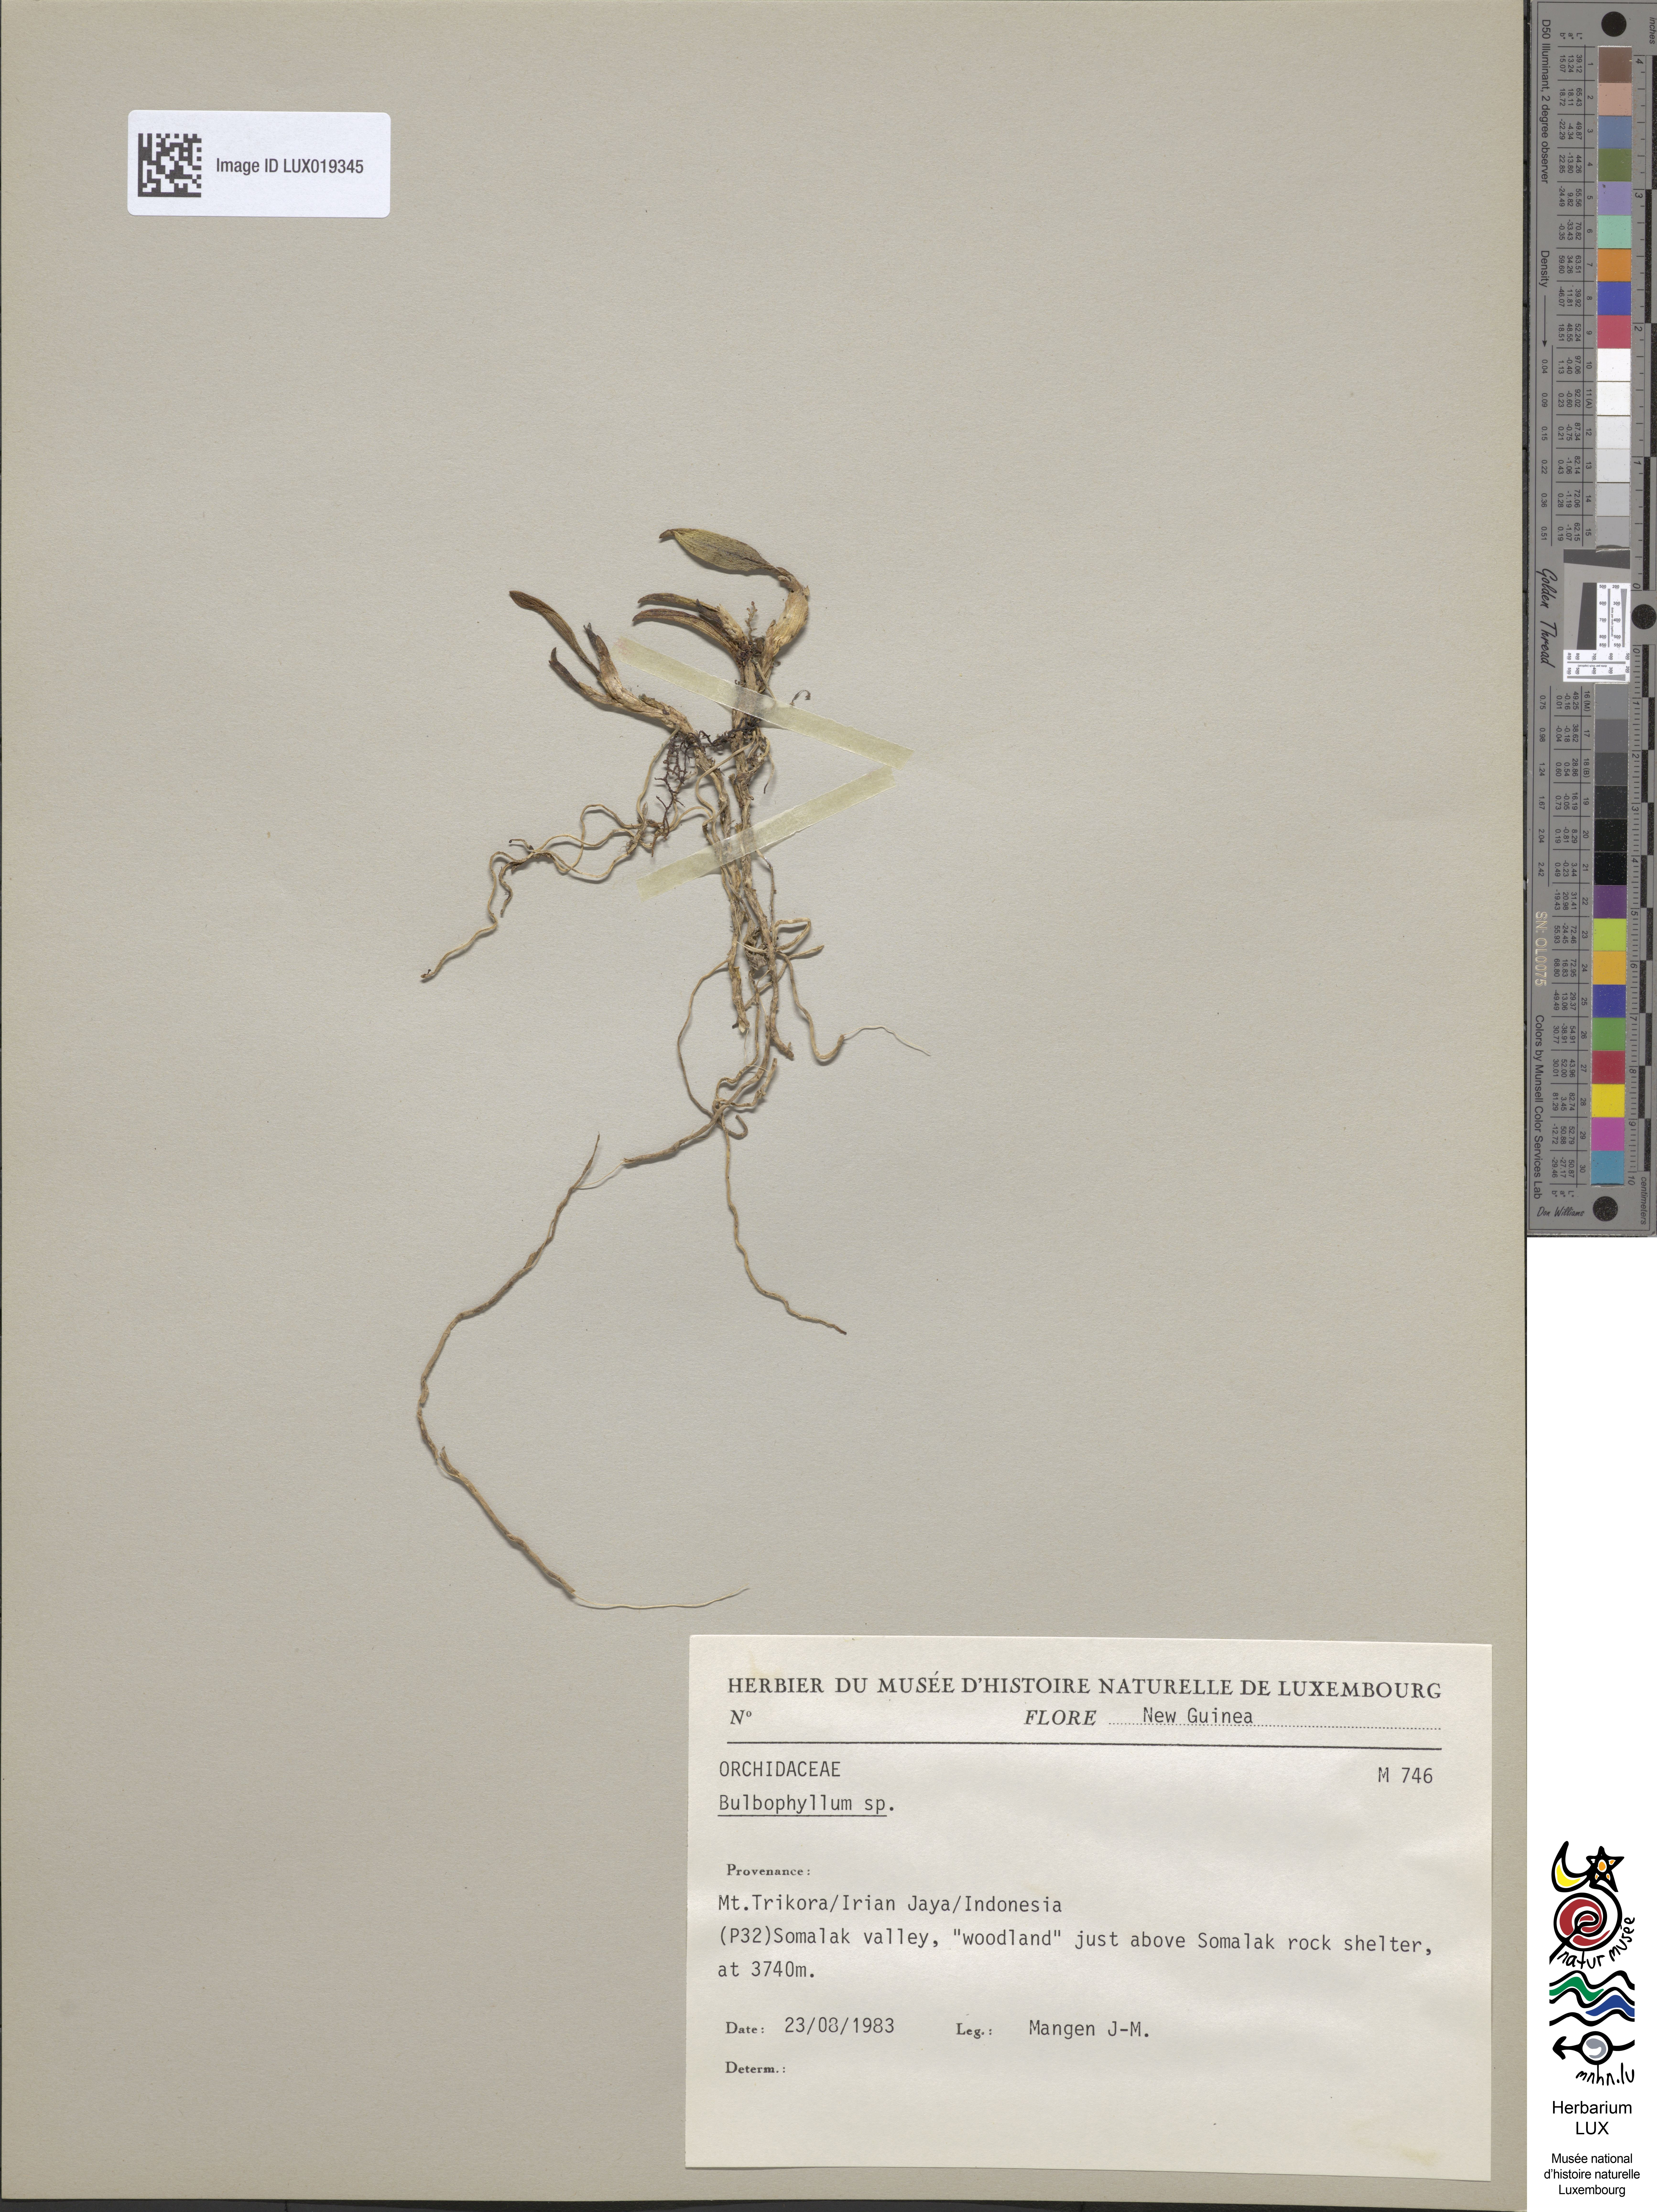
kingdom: Plantae
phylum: Tracheophyta
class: Liliopsida
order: Asparagales
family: Orchidaceae
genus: Bulbophyllum
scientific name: Bulbophyllum
